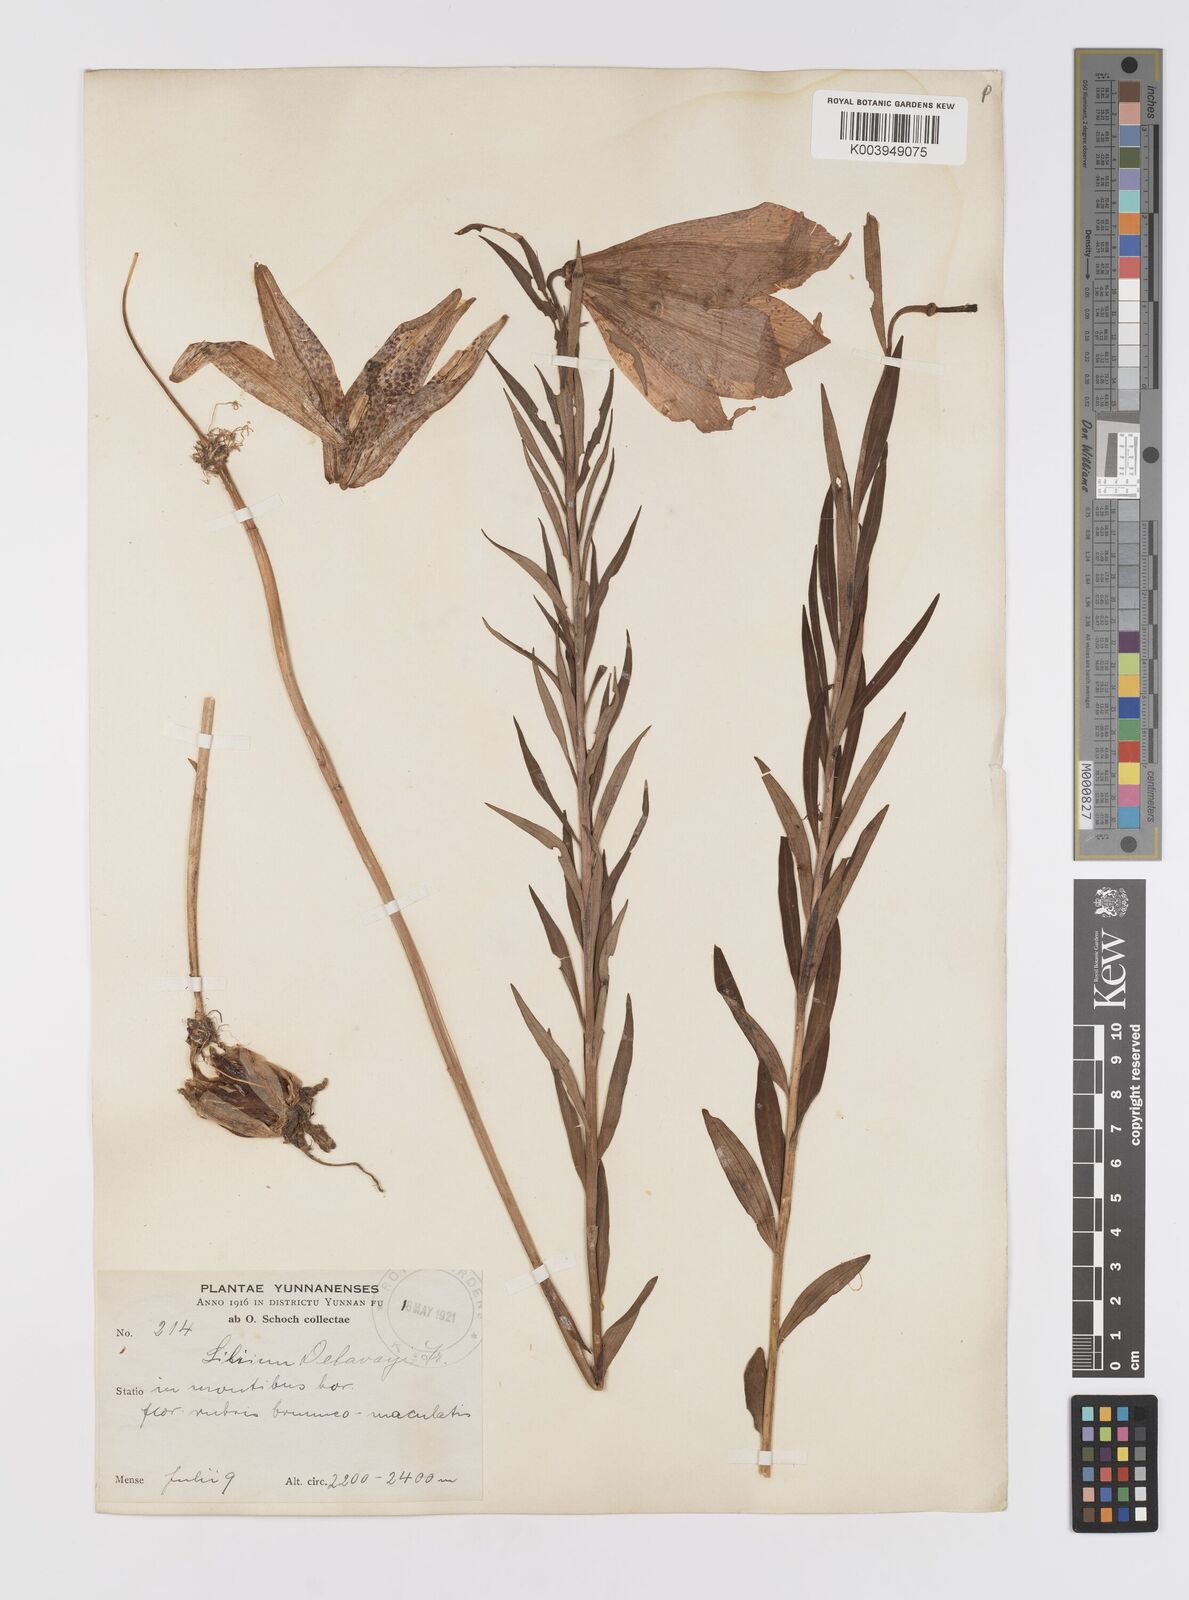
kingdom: Plantae
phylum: Tracheophyta
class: Liliopsida
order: Liliales
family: Liliaceae
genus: Lilium
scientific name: Lilium bakerianum
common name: Baker's lily
